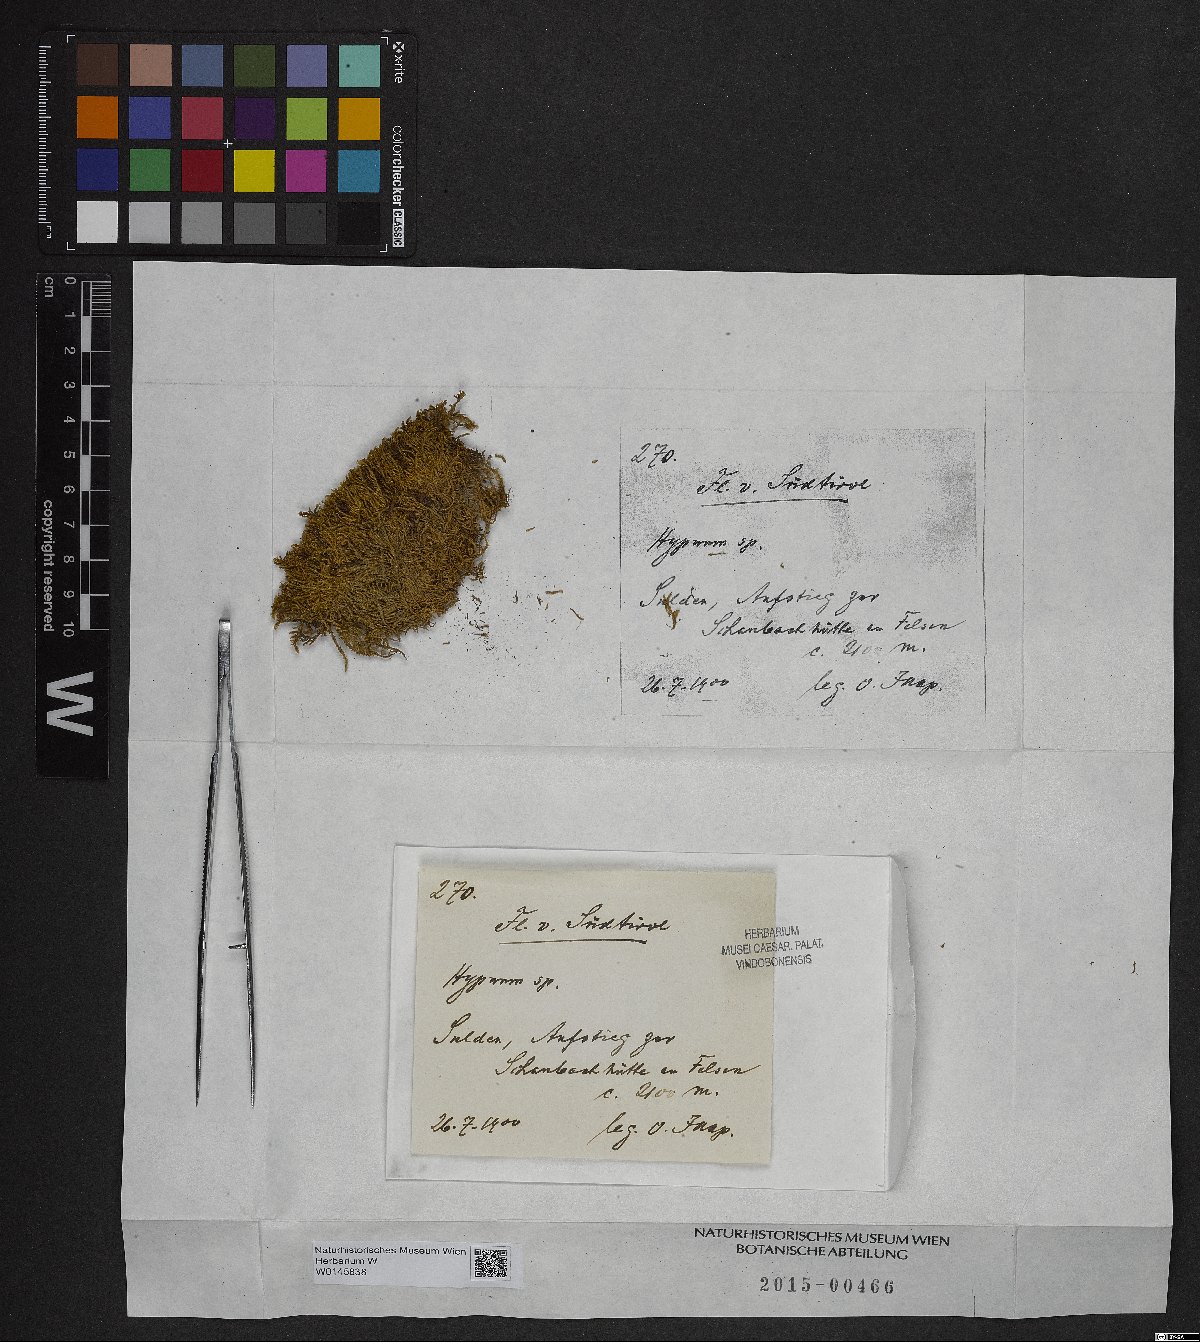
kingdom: Plantae
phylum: Bryophyta
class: Bryopsida
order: Hypnales
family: Hypnaceae
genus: Hypnum
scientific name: Hypnum
